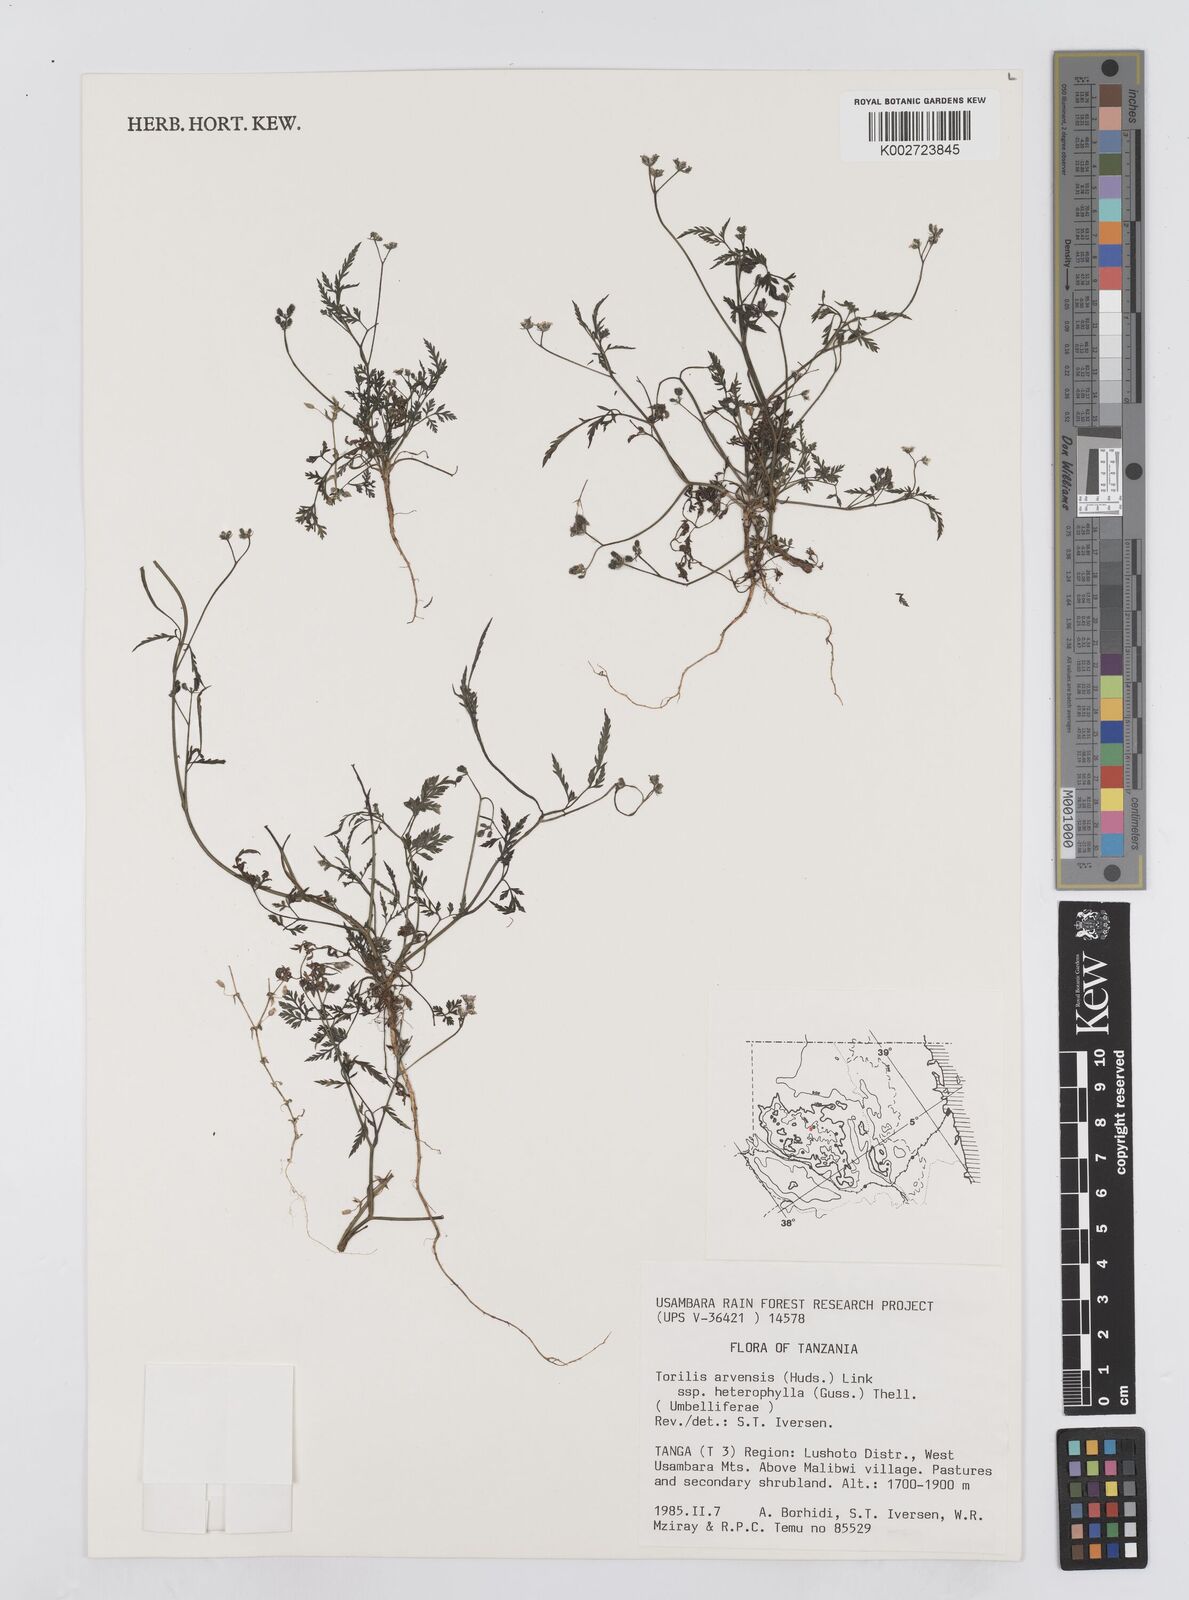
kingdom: Plantae
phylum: Tracheophyta
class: Magnoliopsida
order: Apiales
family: Apiaceae
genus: Torilis
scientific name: Torilis arvensis
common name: Spreading hedge-parsley
